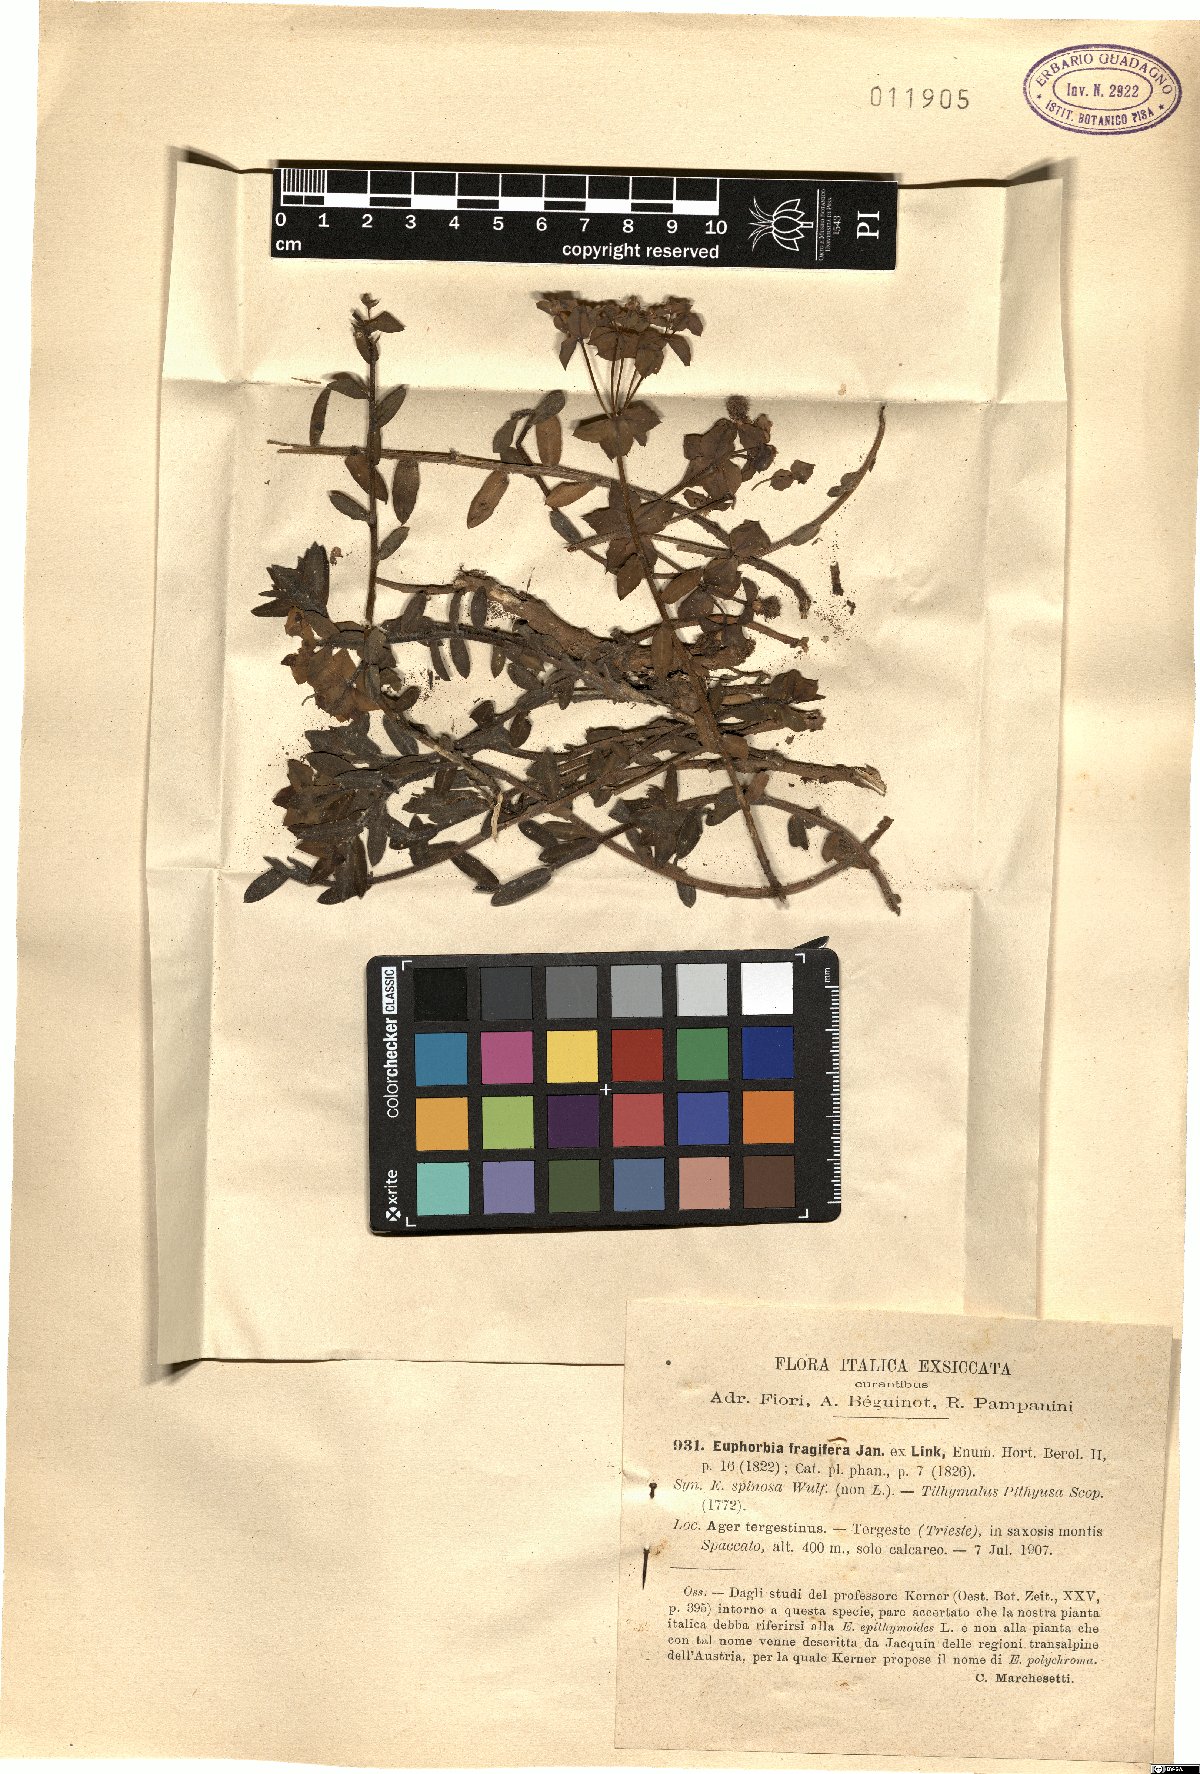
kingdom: Plantae
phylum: Tracheophyta
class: Magnoliopsida
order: Malpighiales
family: Euphorbiaceae
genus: Euphorbia
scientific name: Euphorbia fragifera
